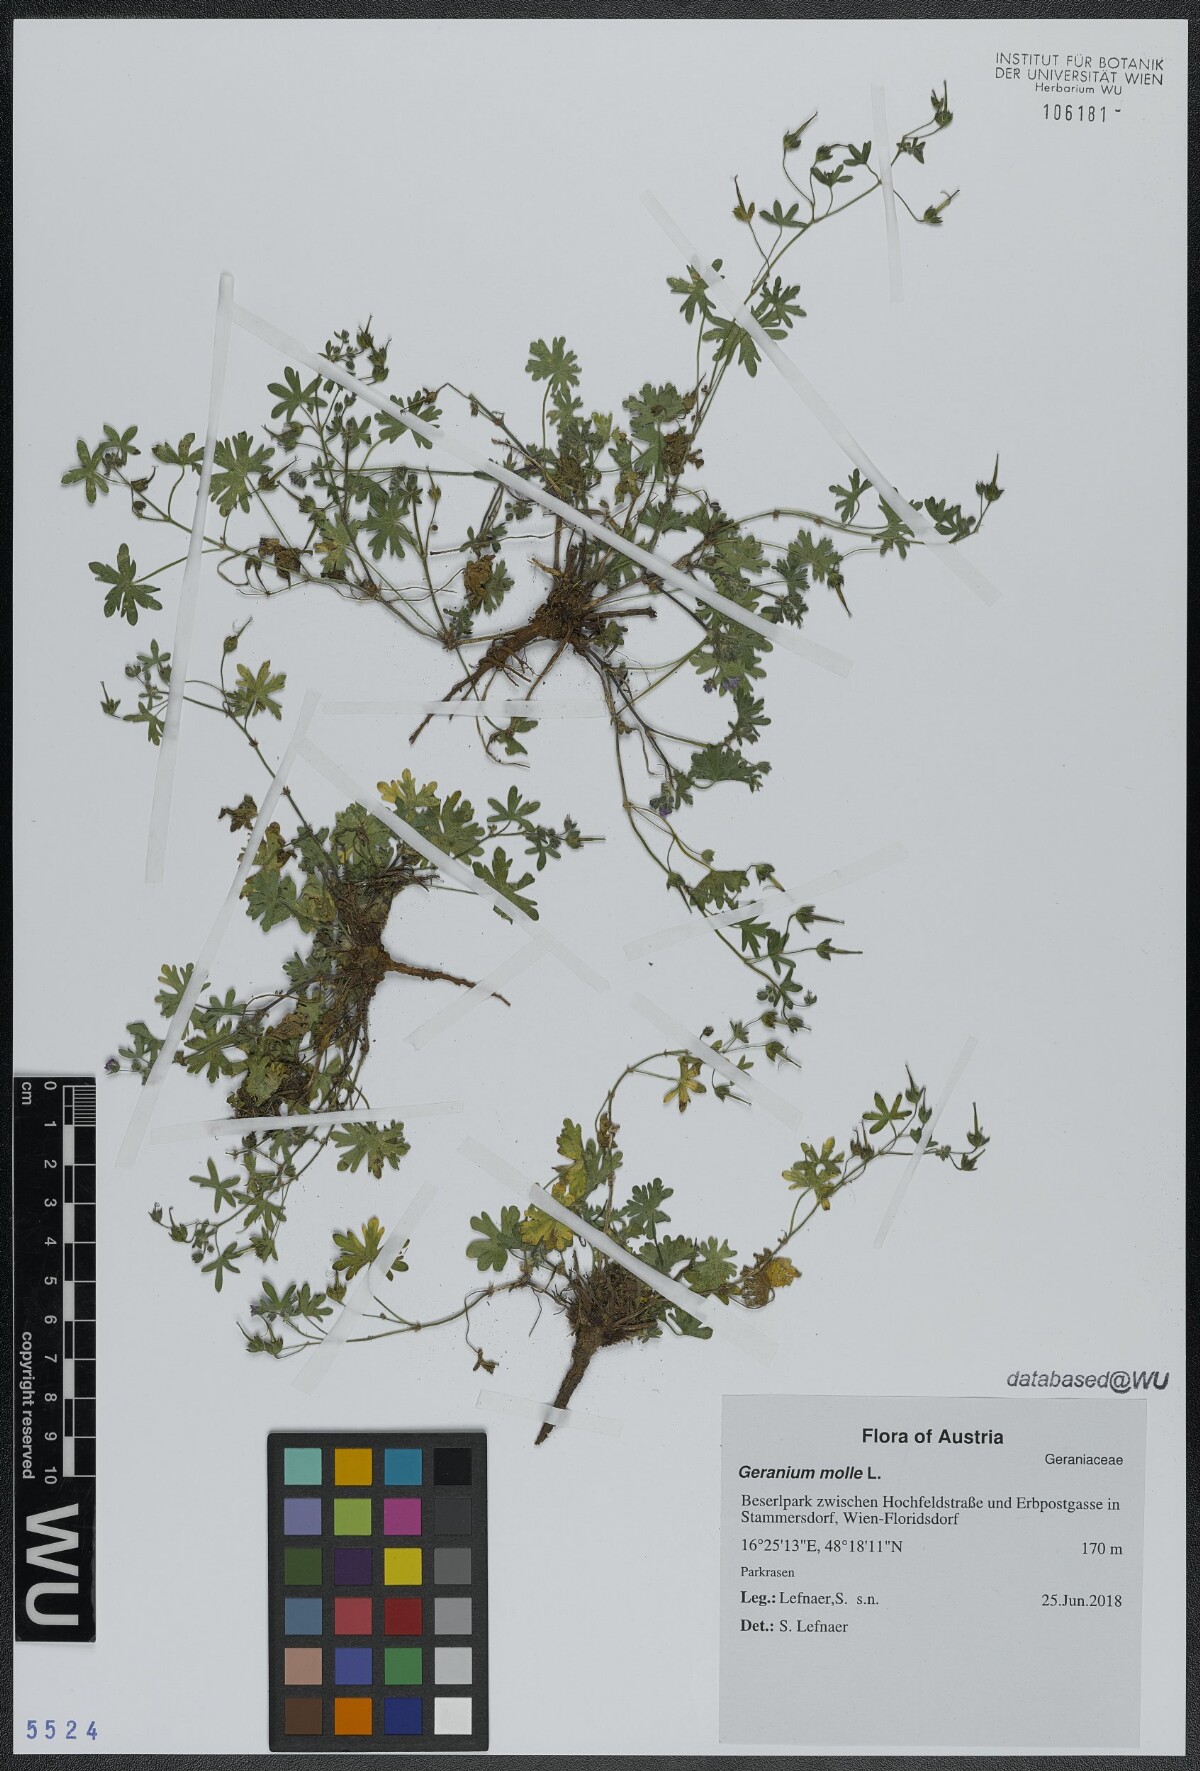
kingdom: Plantae
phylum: Tracheophyta
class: Magnoliopsida
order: Geraniales
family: Geraniaceae
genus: Geranium
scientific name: Geranium molle
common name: Dove's-foot crane's-bill
